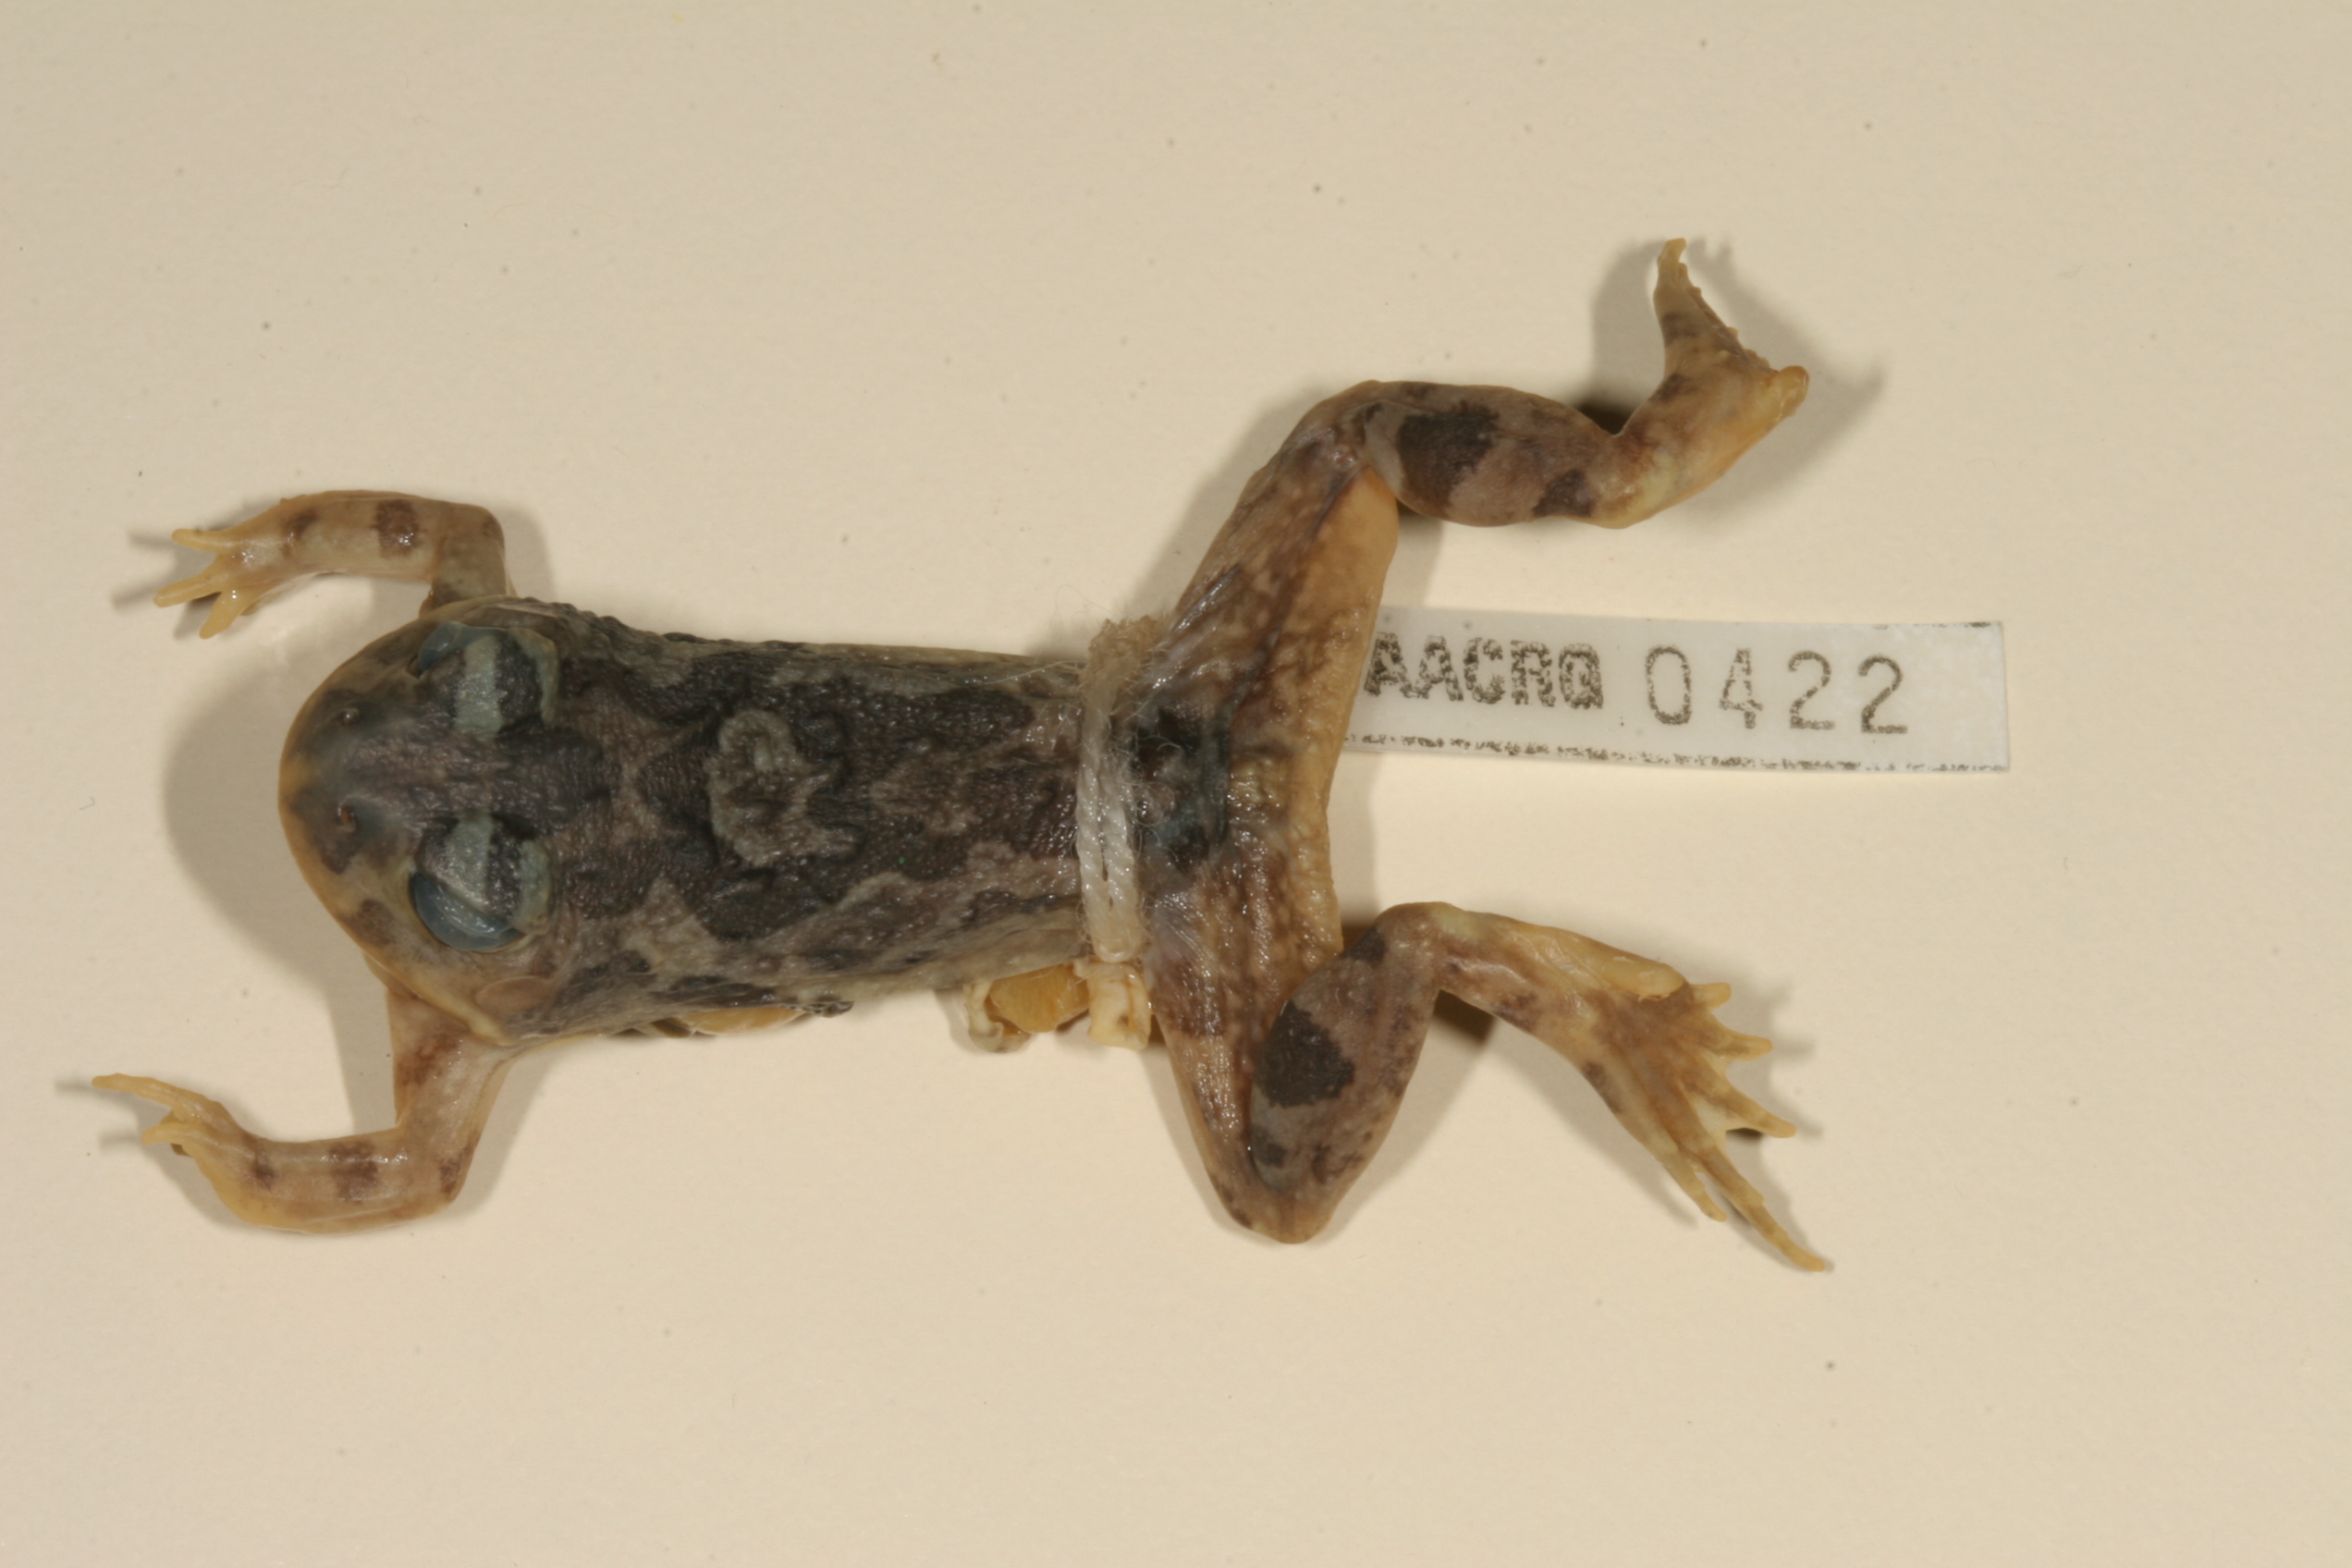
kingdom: Animalia
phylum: Chordata
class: Amphibia
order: Anura
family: Pyxicephalidae
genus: Tomopterna
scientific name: Tomopterna cryptotis
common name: Catequero bullfrog
